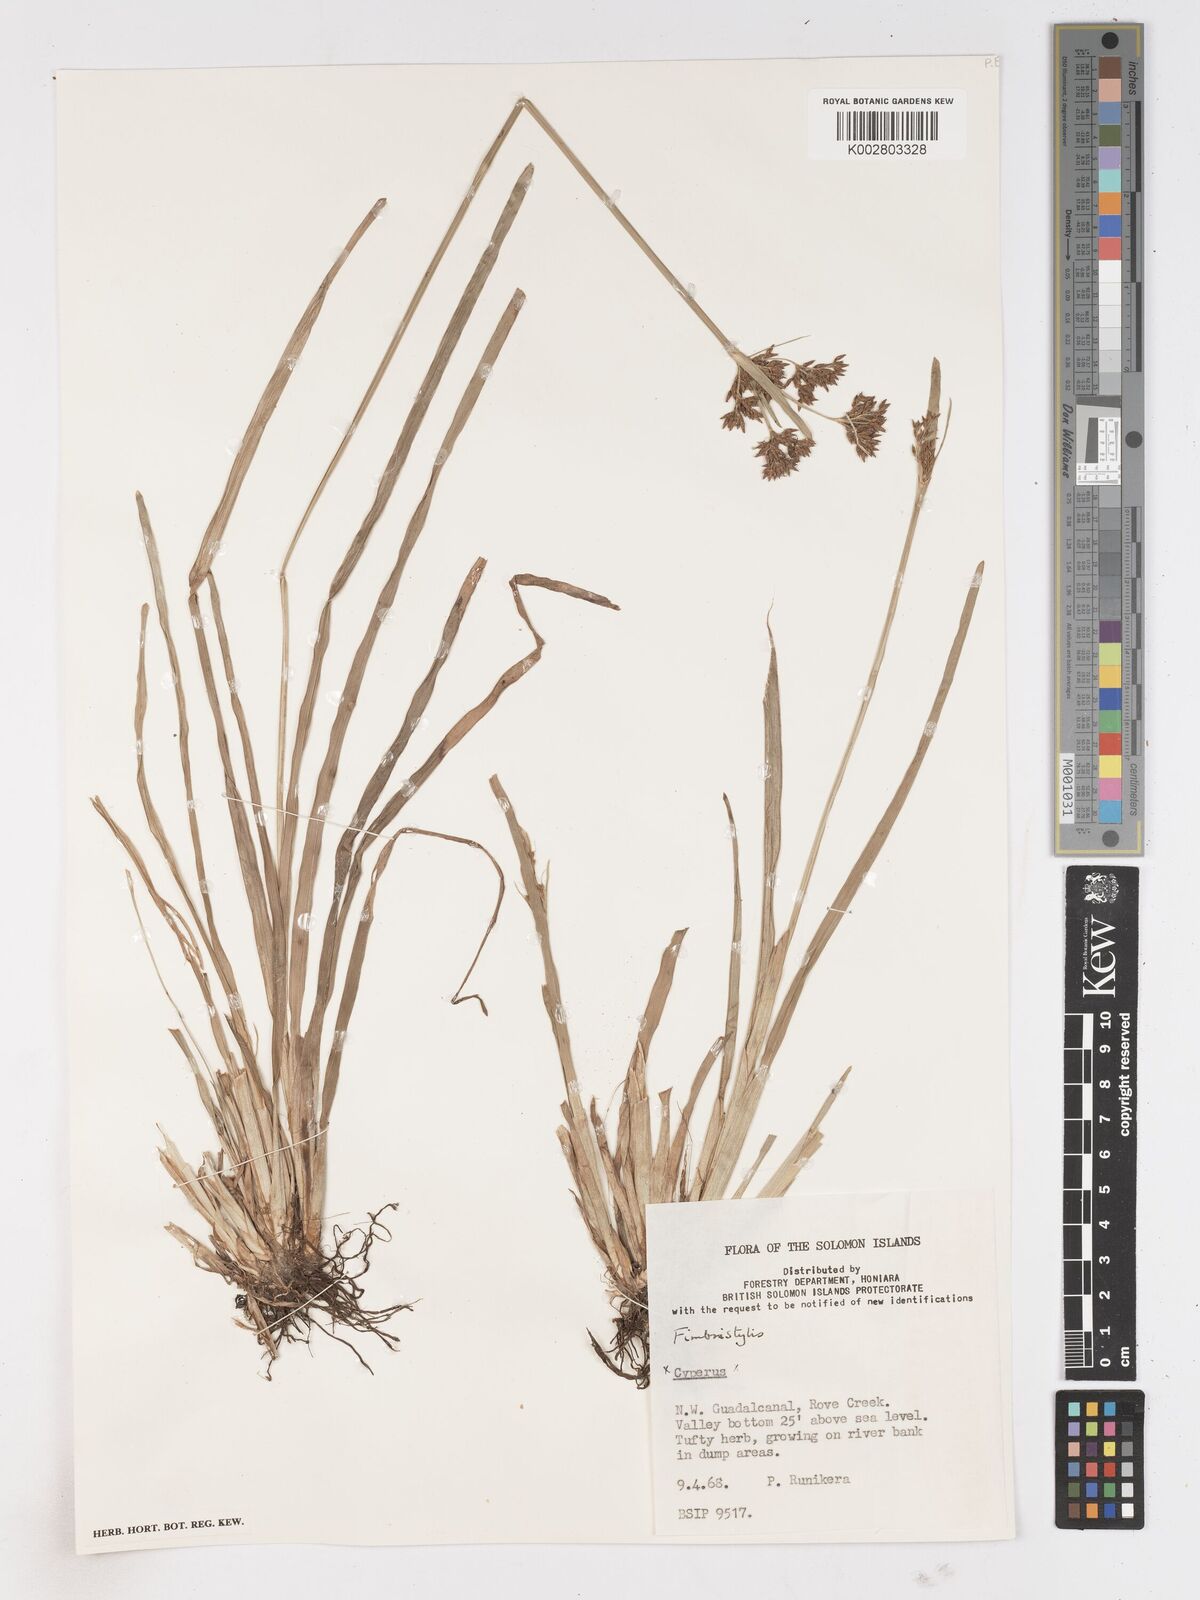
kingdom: Plantae
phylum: Tracheophyta
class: Liliopsida
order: Poales
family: Cyperaceae
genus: Fimbristylis
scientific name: Fimbristylis
